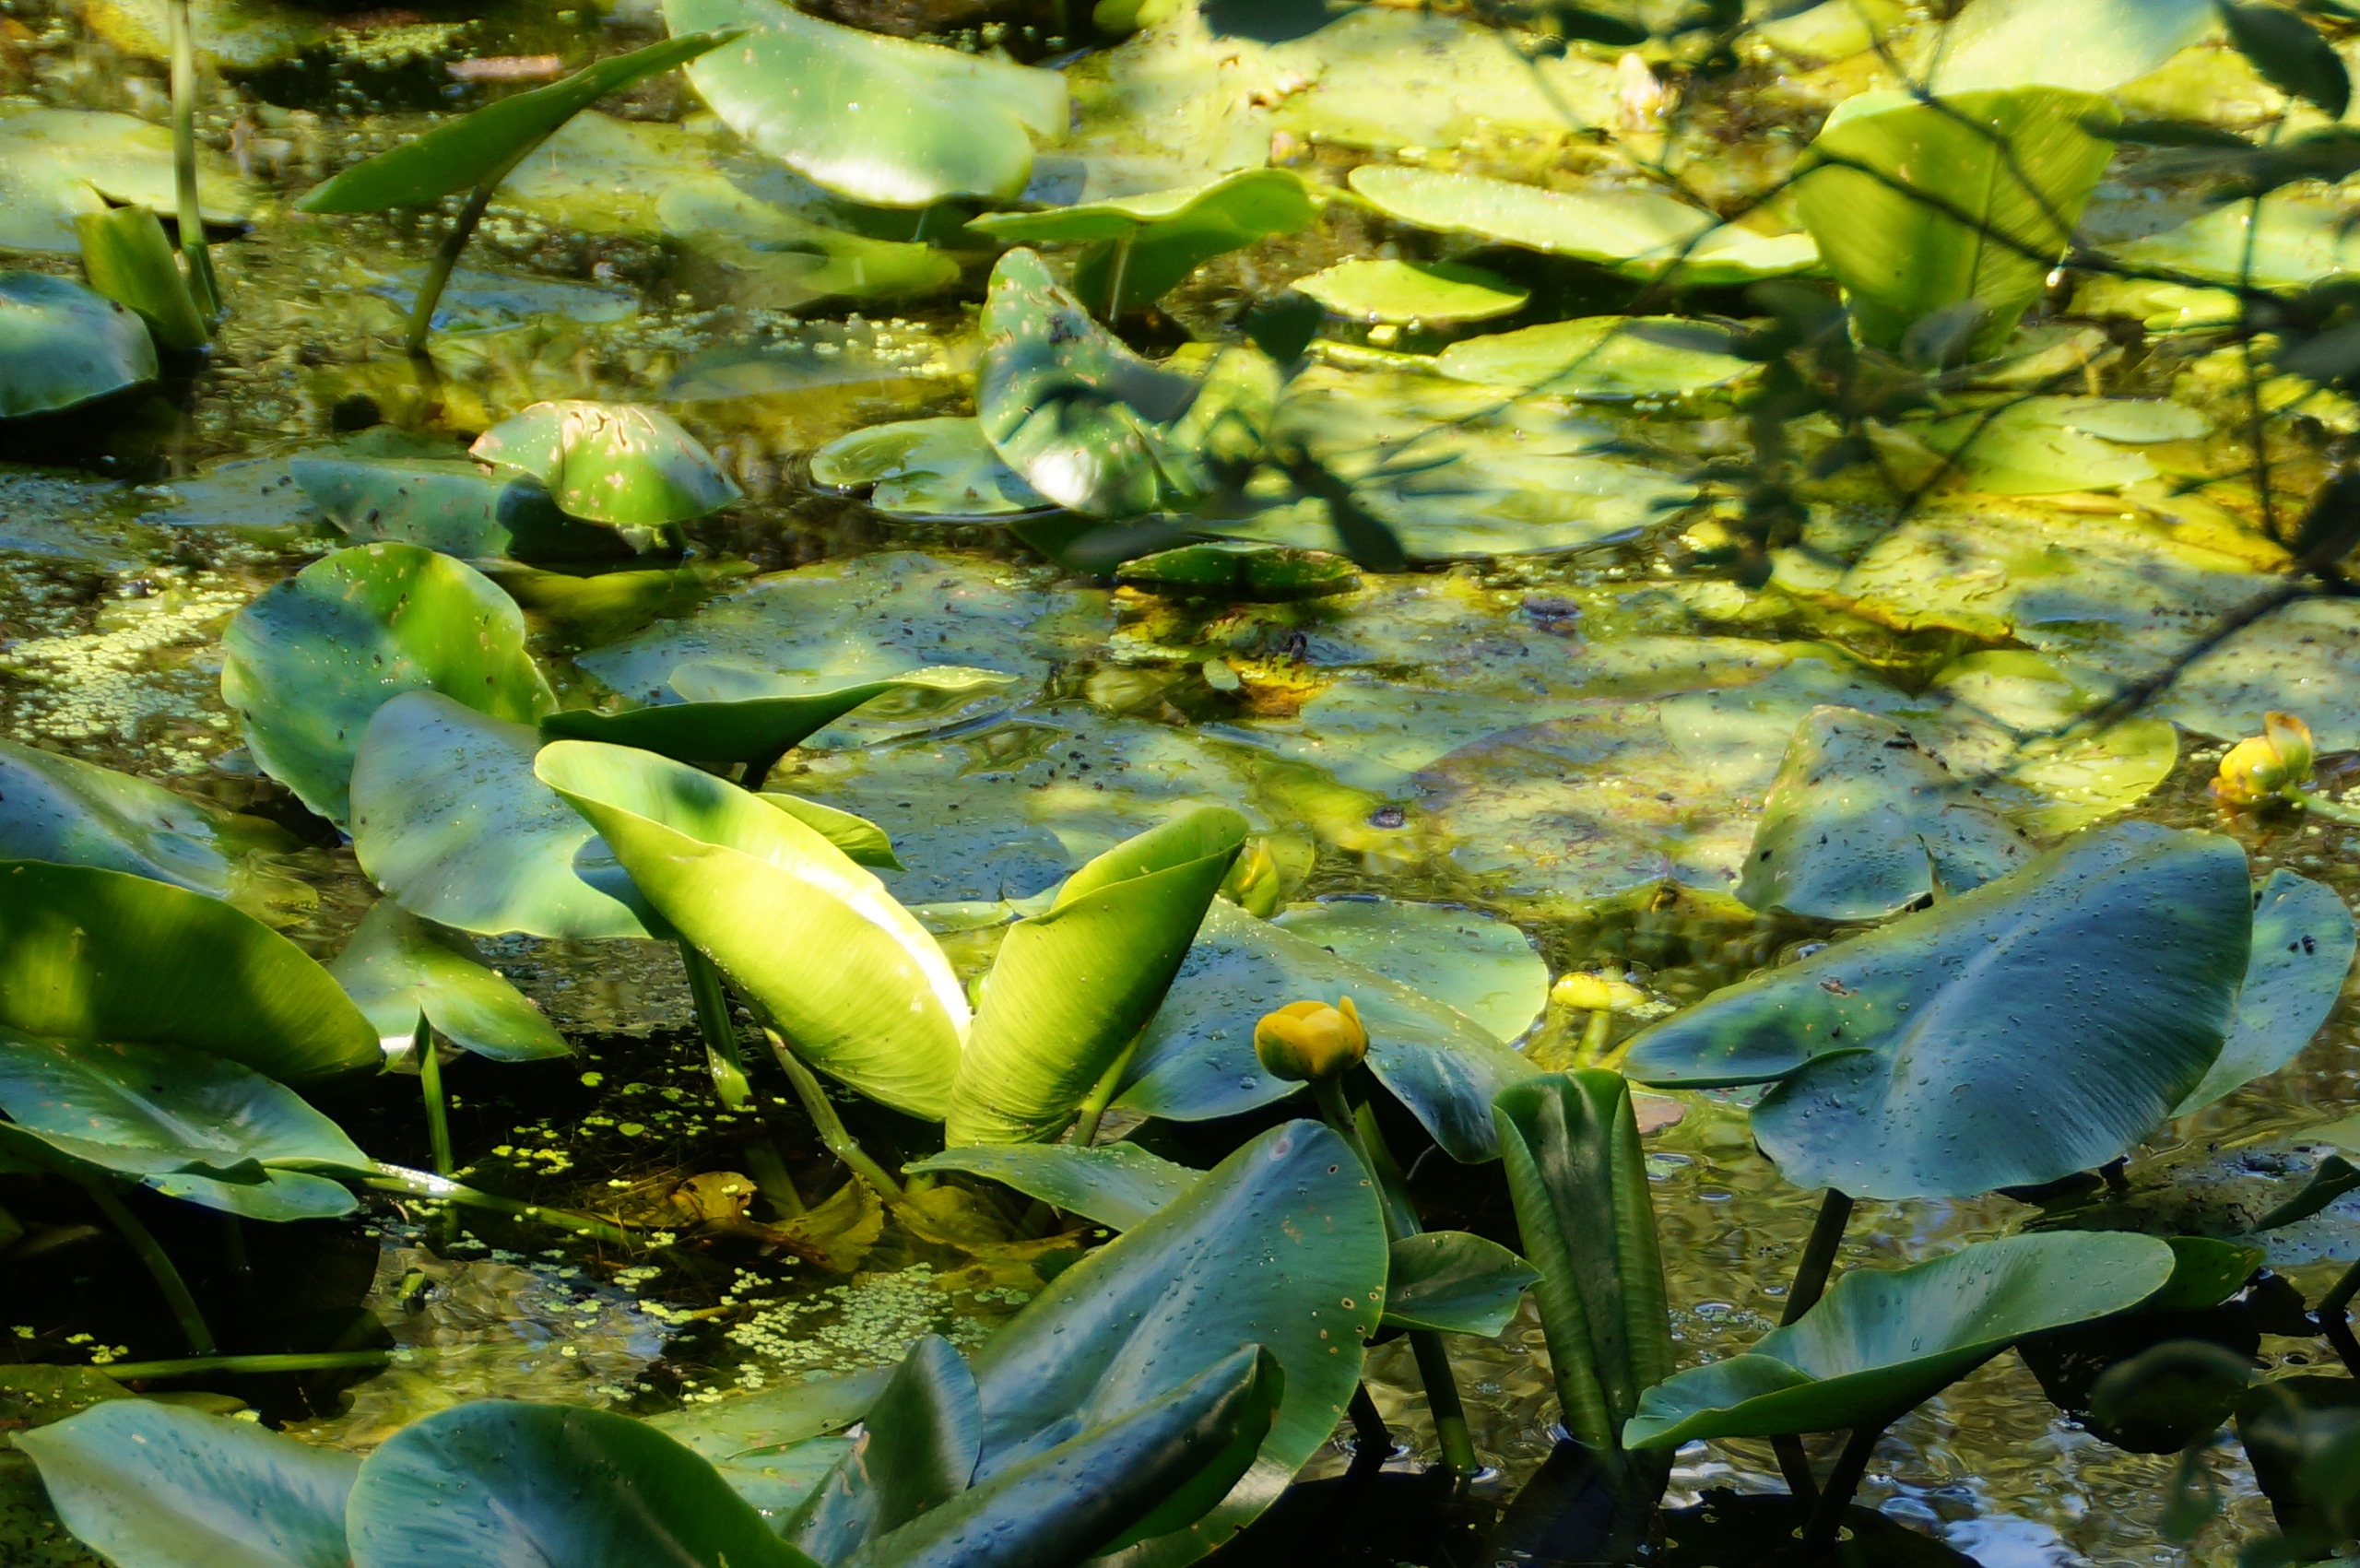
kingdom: Plantae
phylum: Tracheophyta
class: Magnoliopsida
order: Nymphaeales
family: Nymphaeaceae
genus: Nuphar
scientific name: Nuphar lutea
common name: Gul åkande
